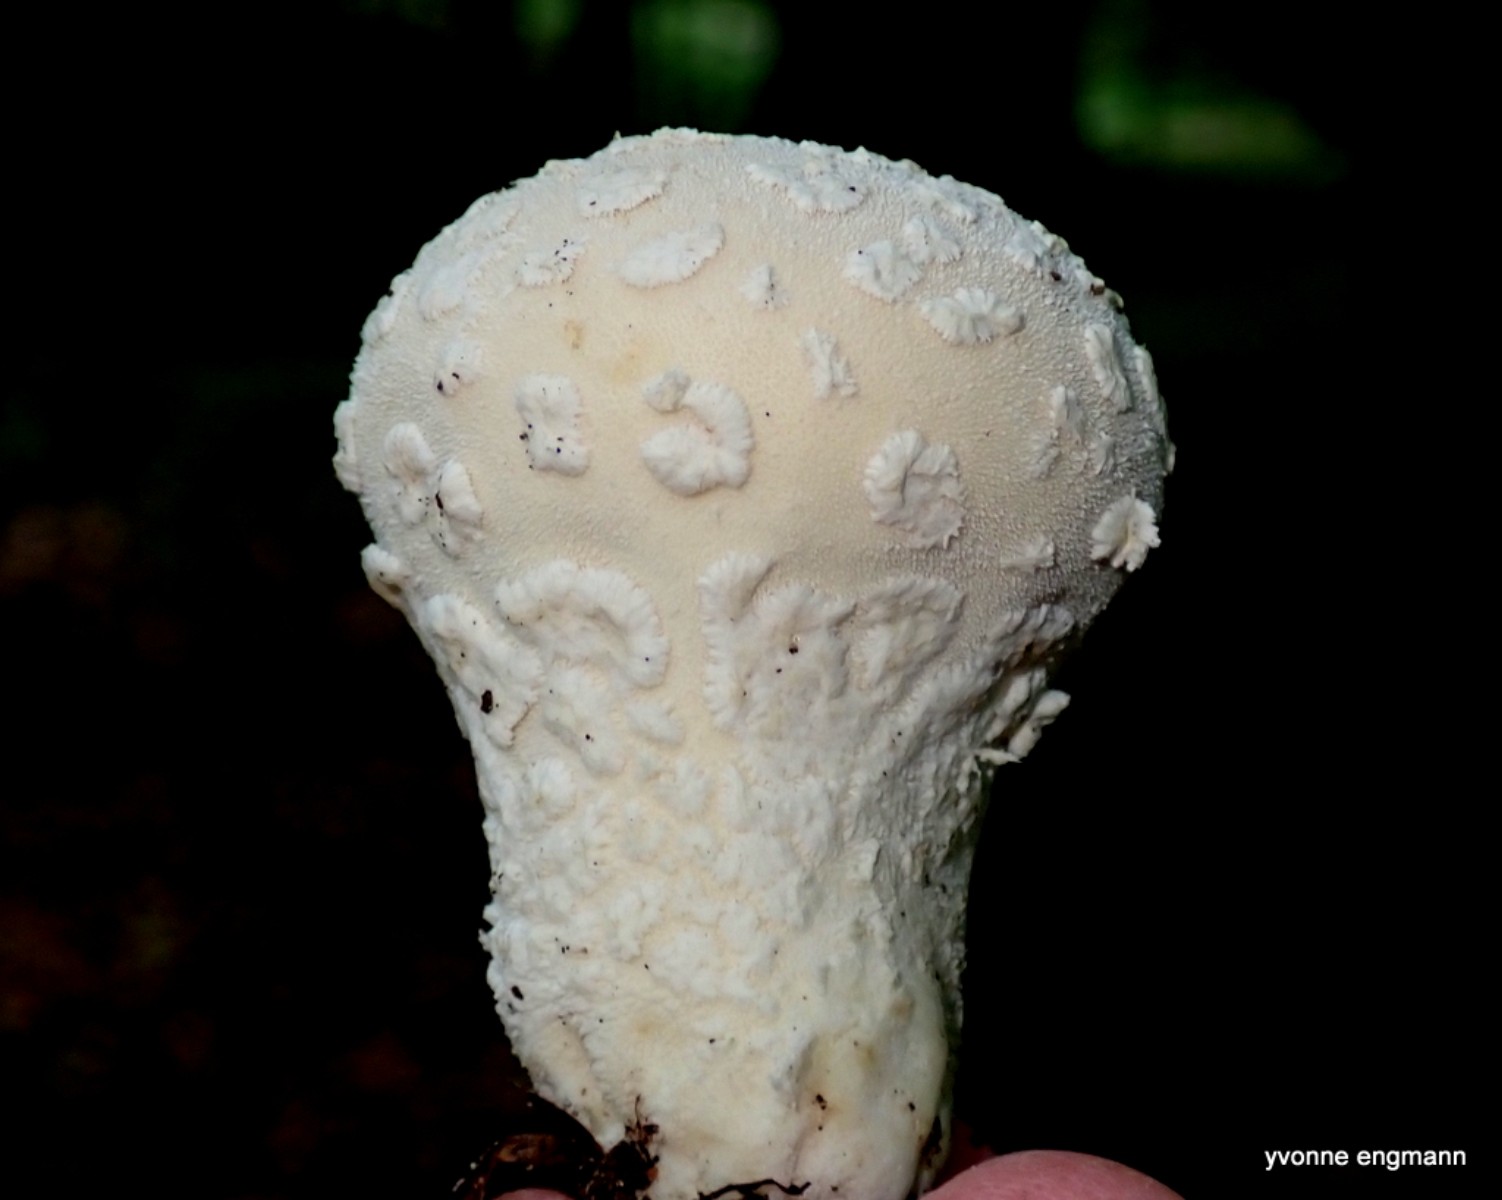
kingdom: Fungi
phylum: Basidiomycota
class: Agaricomycetes
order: Agaricales
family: Lycoperdaceae
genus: Lycoperdon
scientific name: Lycoperdon mammiforme
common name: rosa støvbold
